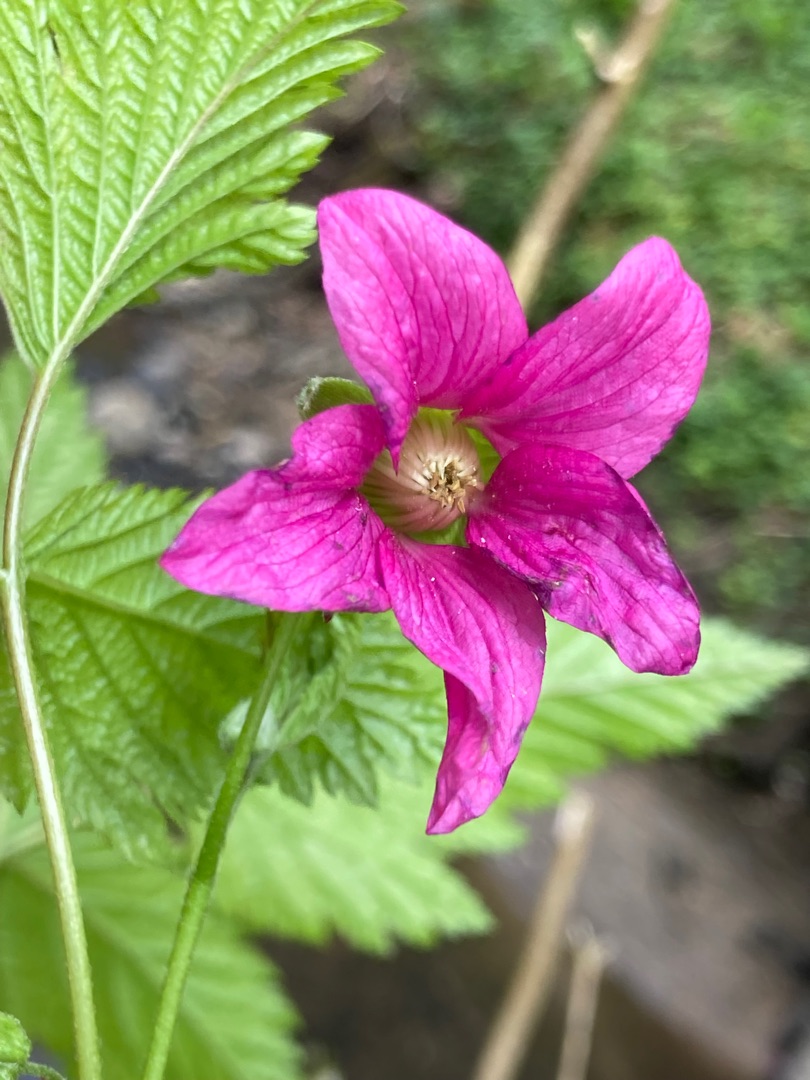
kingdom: Plantae
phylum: Tracheophyta
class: Magnoliopsida
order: Rosales
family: Rosaceae
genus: Rubus
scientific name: Rubus spectabilis
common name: Laksebær
